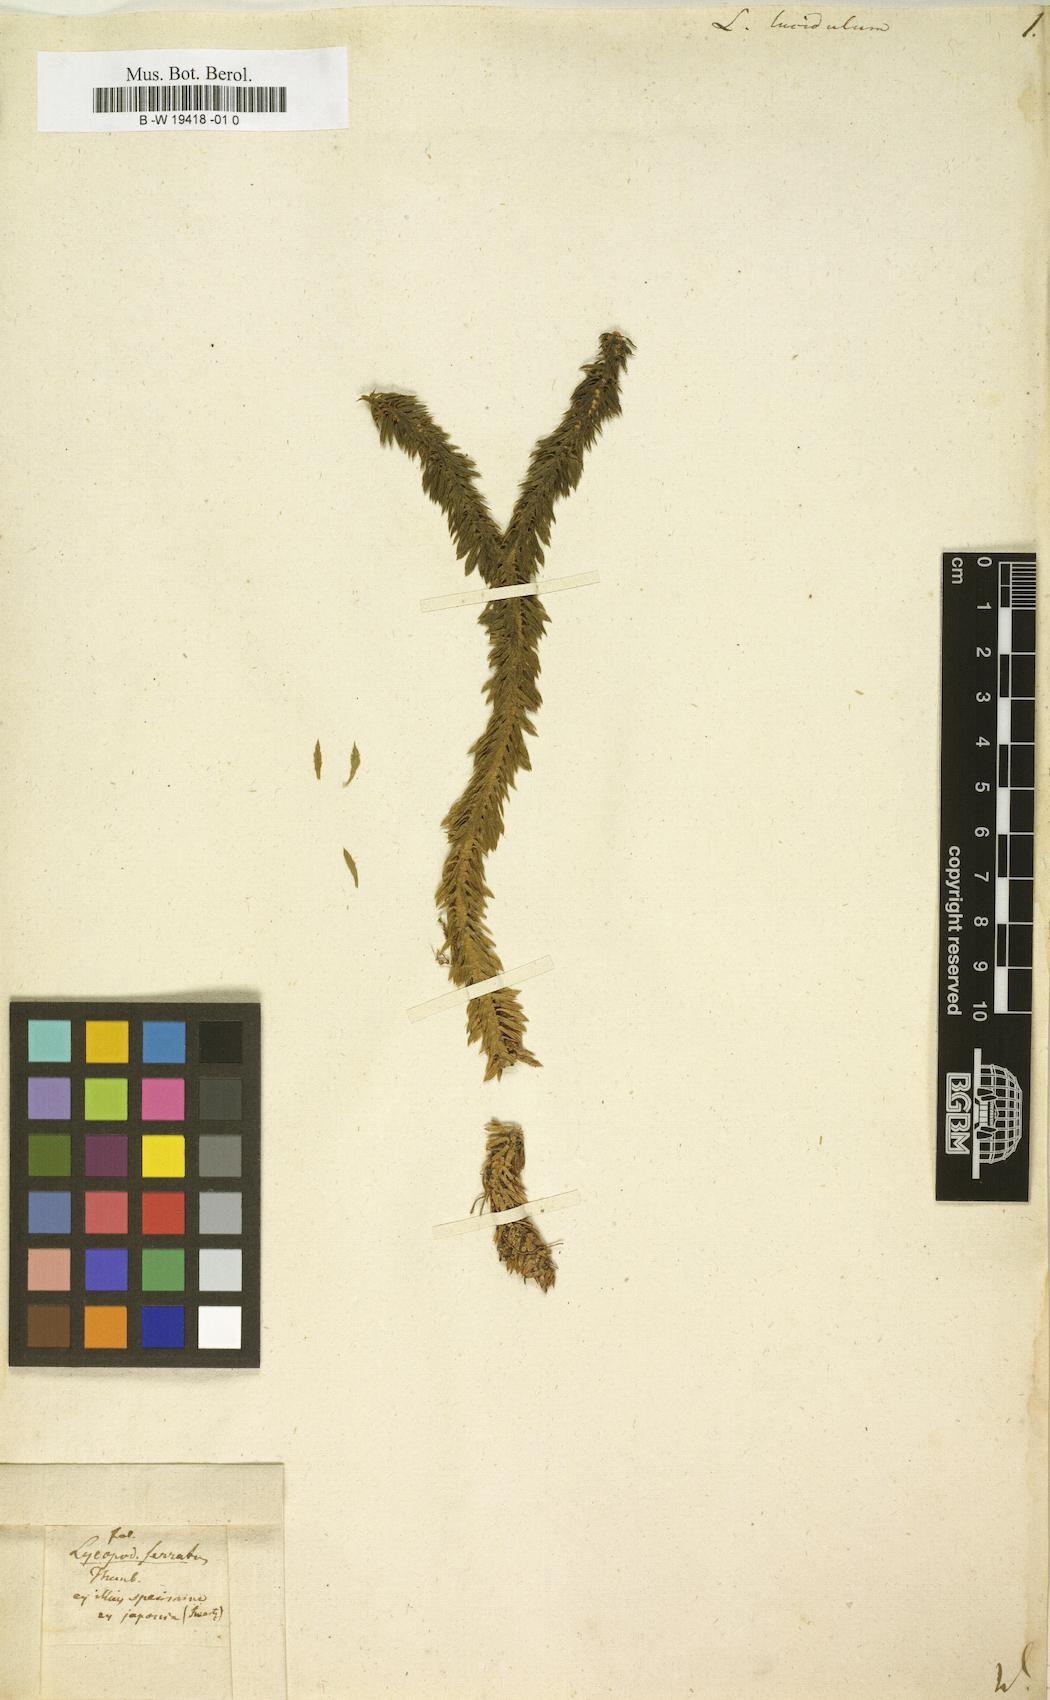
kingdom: Plantae
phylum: Tracheophyta
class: Lycopodiopsida
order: Lycopodiales
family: Lycopodiaceae
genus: Huperzia
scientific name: Huperzia
